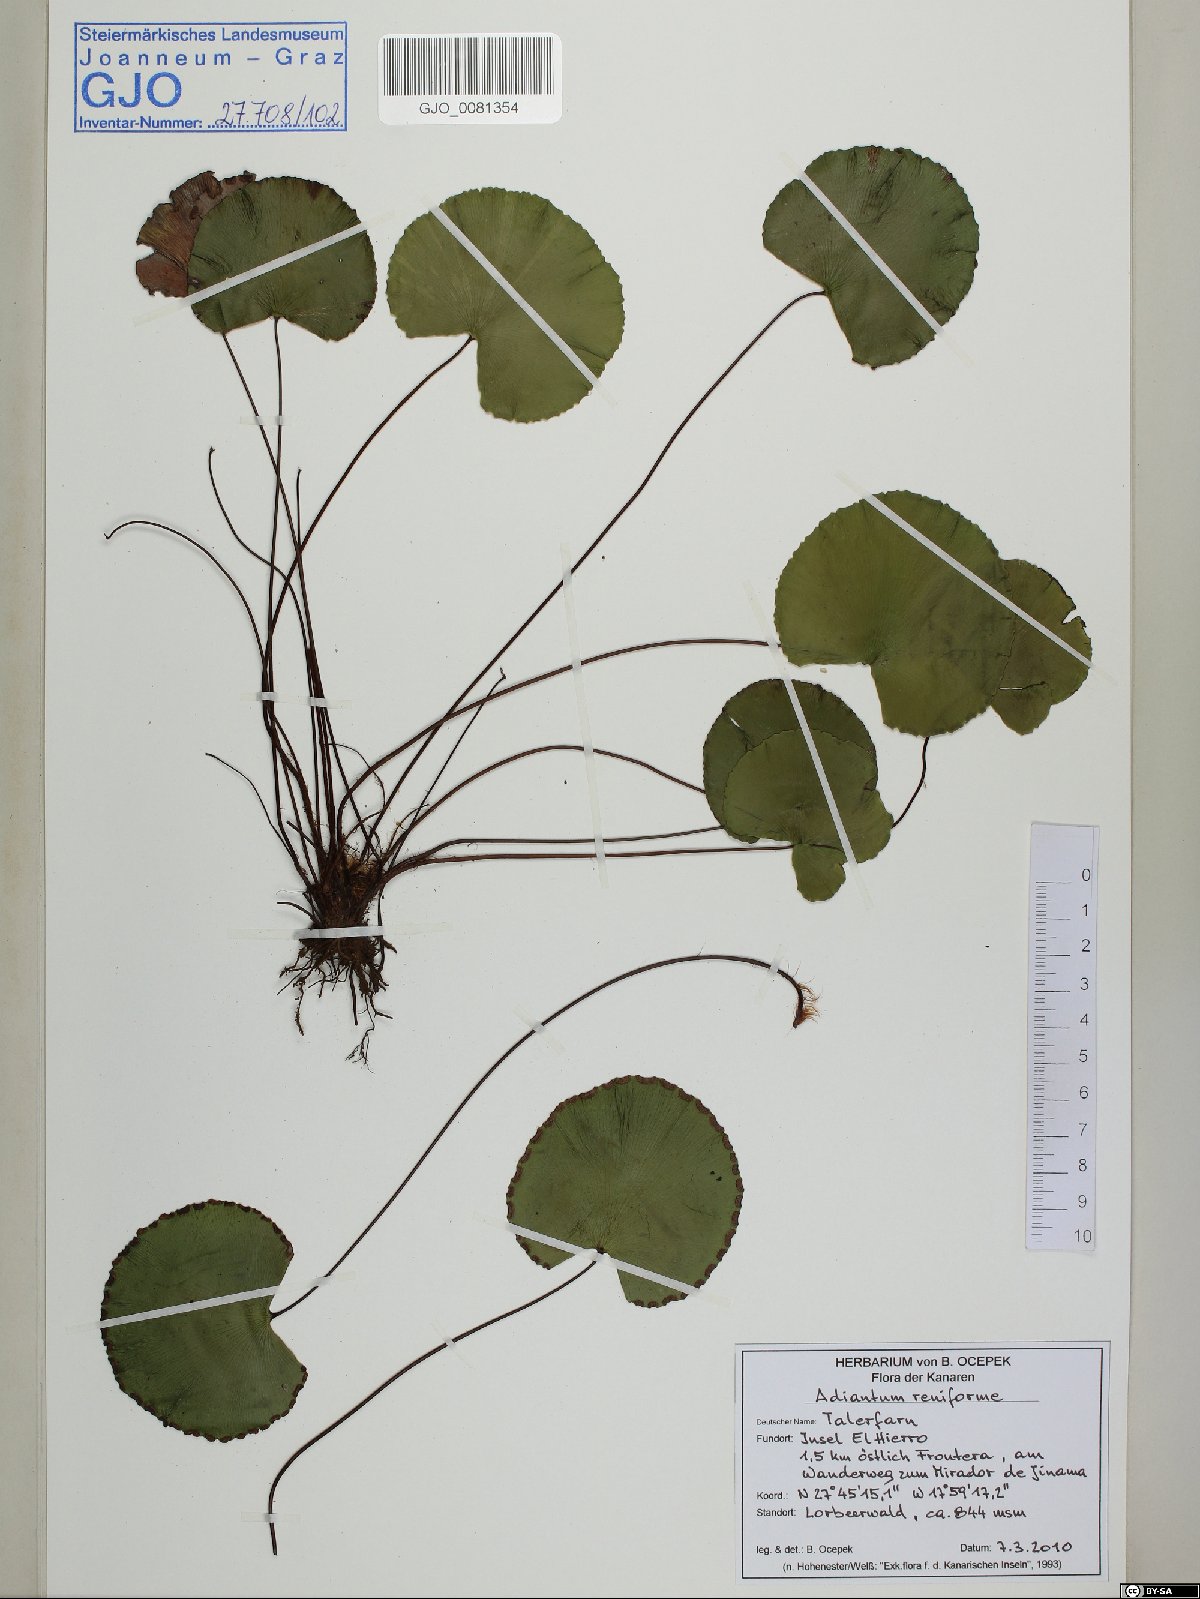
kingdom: Plantae
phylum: Tracheophyta
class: Polypodiopsida
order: Polypodiales
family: Pteridaceae
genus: Adiantum
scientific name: Adiantum reniforme
